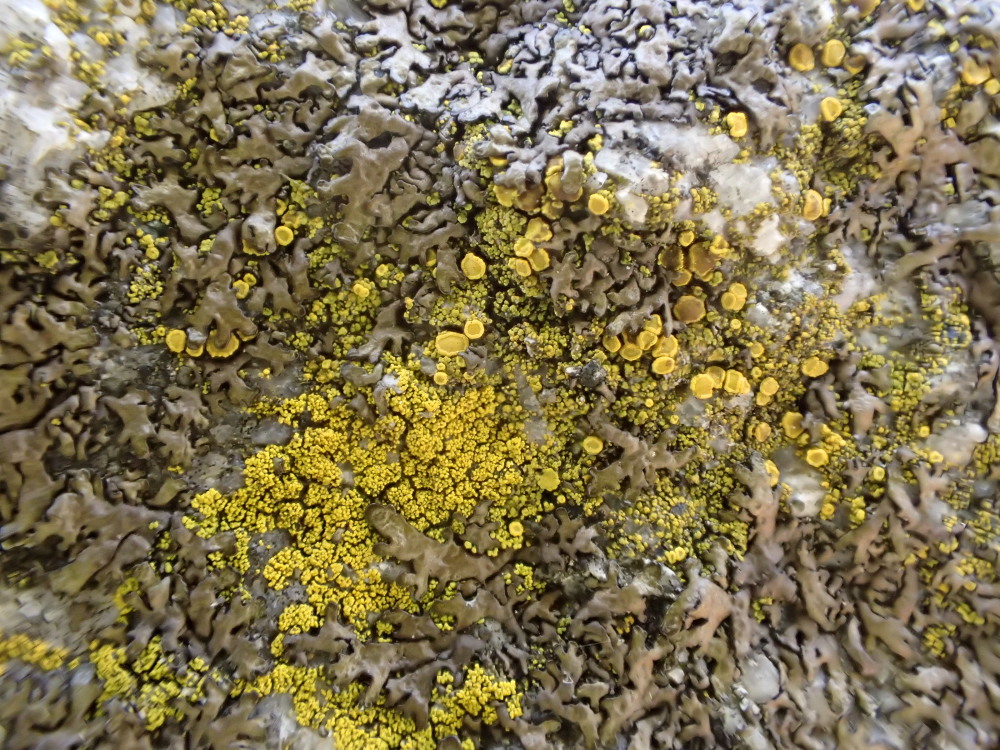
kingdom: Fungi
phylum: Ascomycota
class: Candelariomycetes
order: Candelariales
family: Candelariaceae
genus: Candelariella
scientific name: Candelariella vitellina
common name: almindelig æggeblommelav
